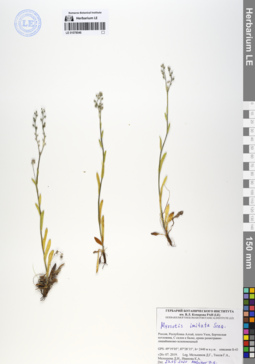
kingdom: Plantae
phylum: Tracheophyta
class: Magnoliopsida
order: Boraginales
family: Boraginaceae
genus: Myosotis
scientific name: Myosotis imitata
